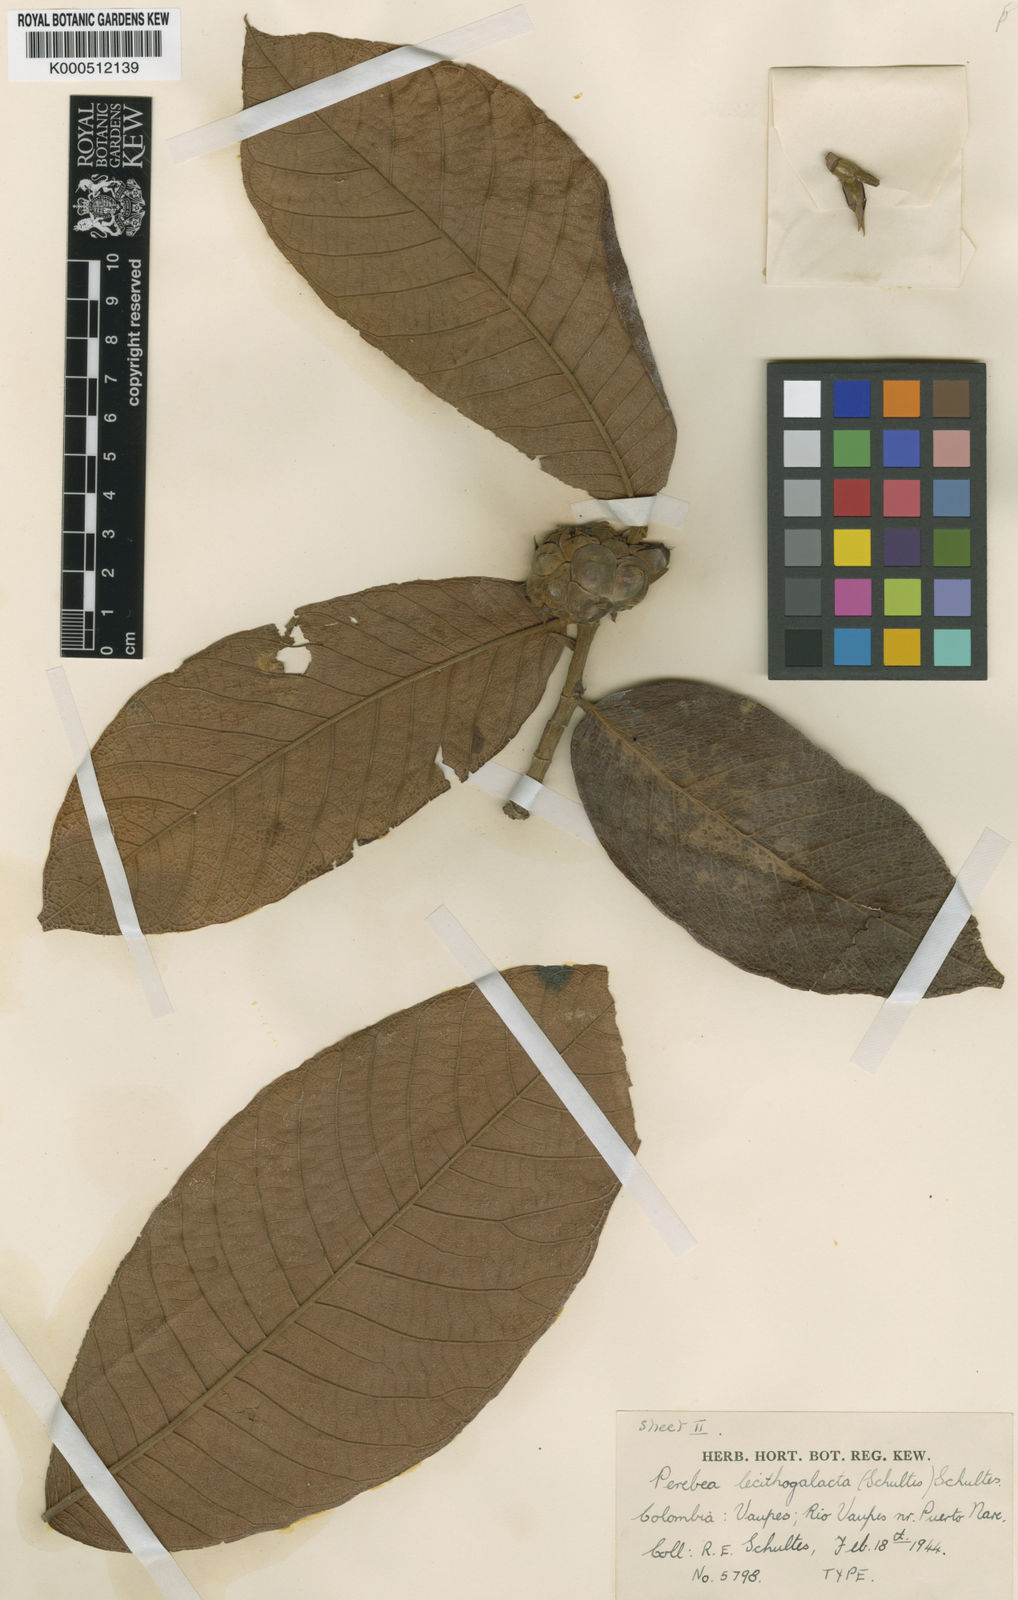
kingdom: Plantae
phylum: Tracheophyta
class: Magnoliopsida
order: Rosales
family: Moraceae
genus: Perebea
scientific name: Perebea
